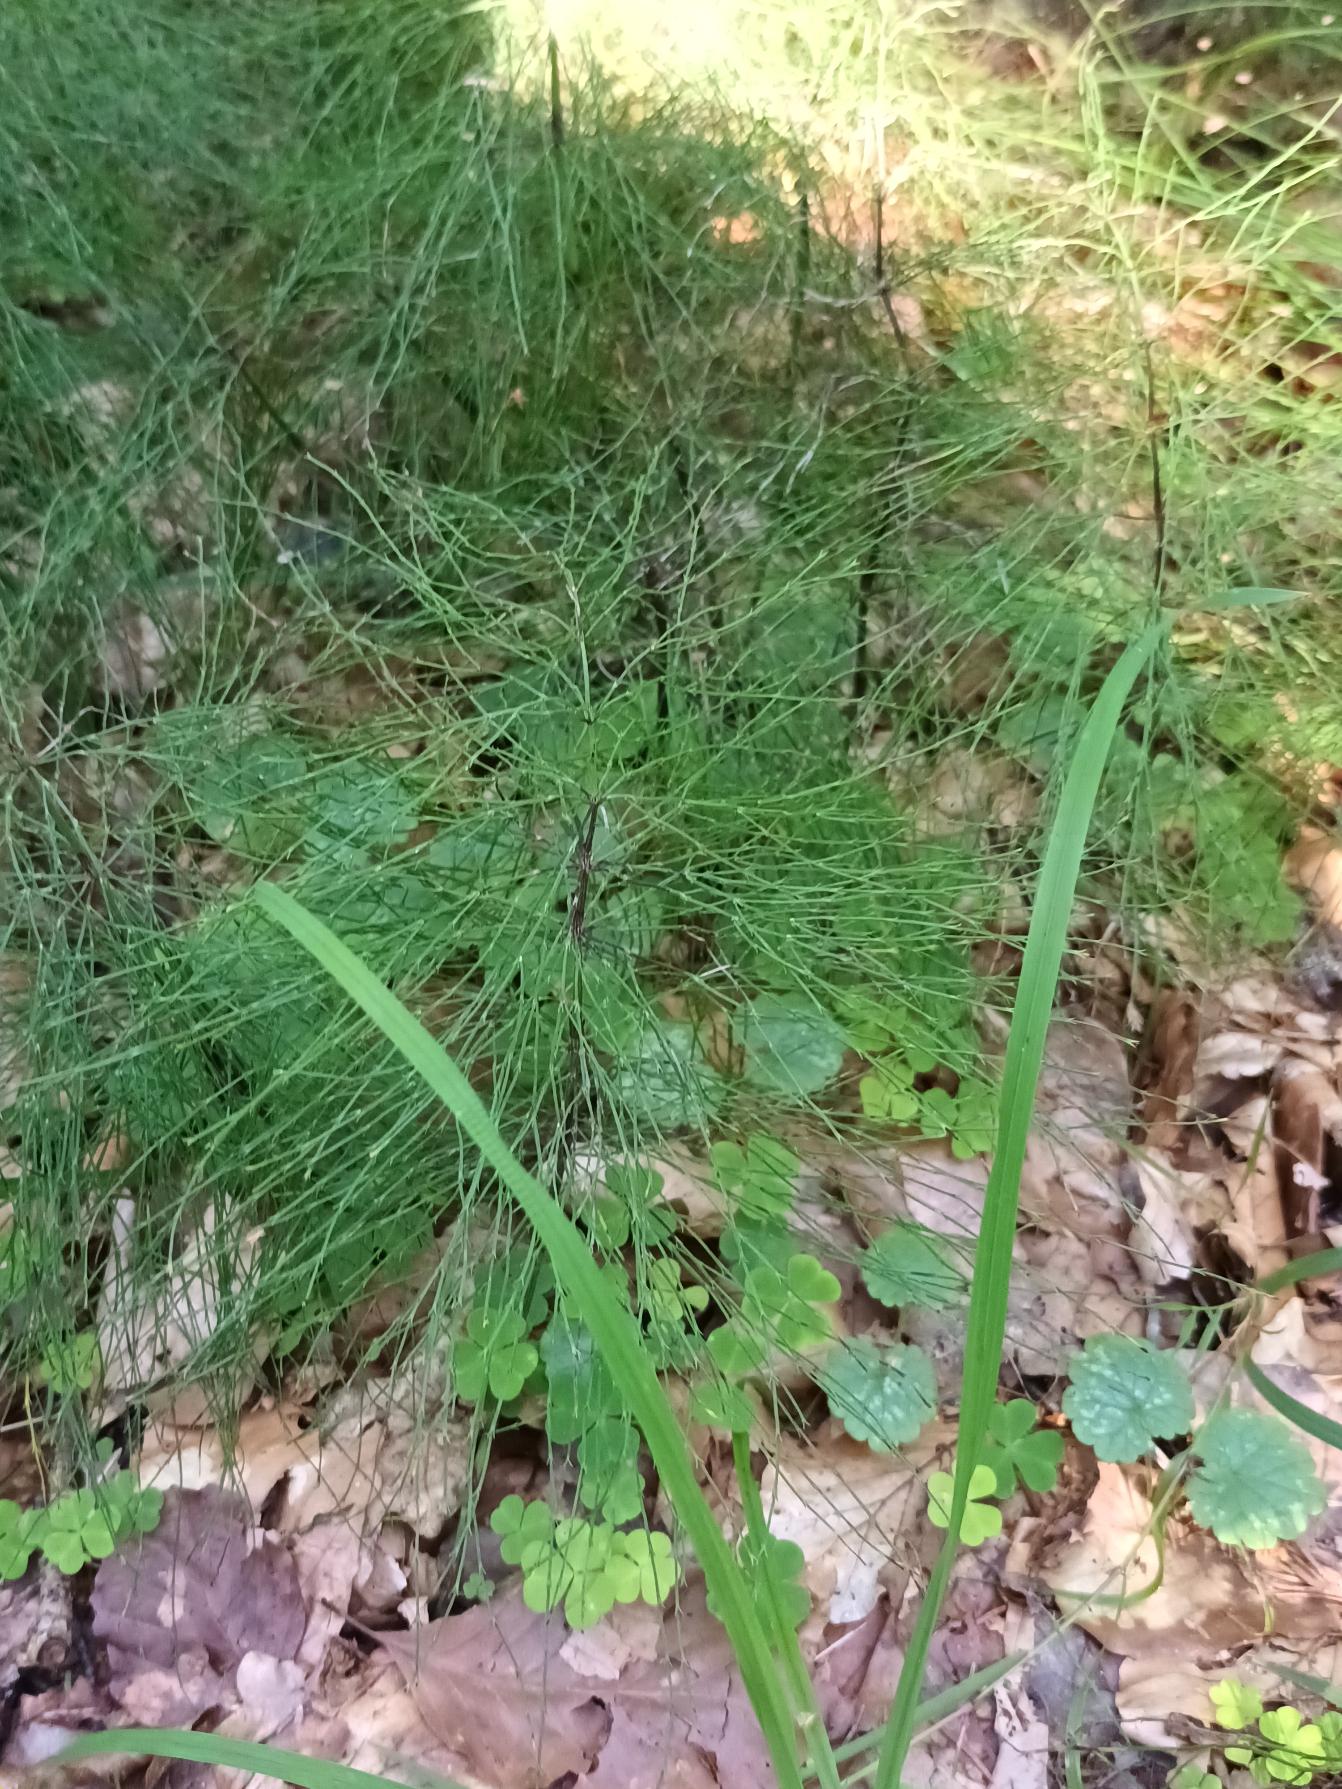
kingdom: Plantae
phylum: Tracheophyta
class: Polypodiopsida
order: Equisetales
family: Equisetaceae
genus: Equisetum
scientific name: Equisetum sylvaticum
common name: Skov-padderok
